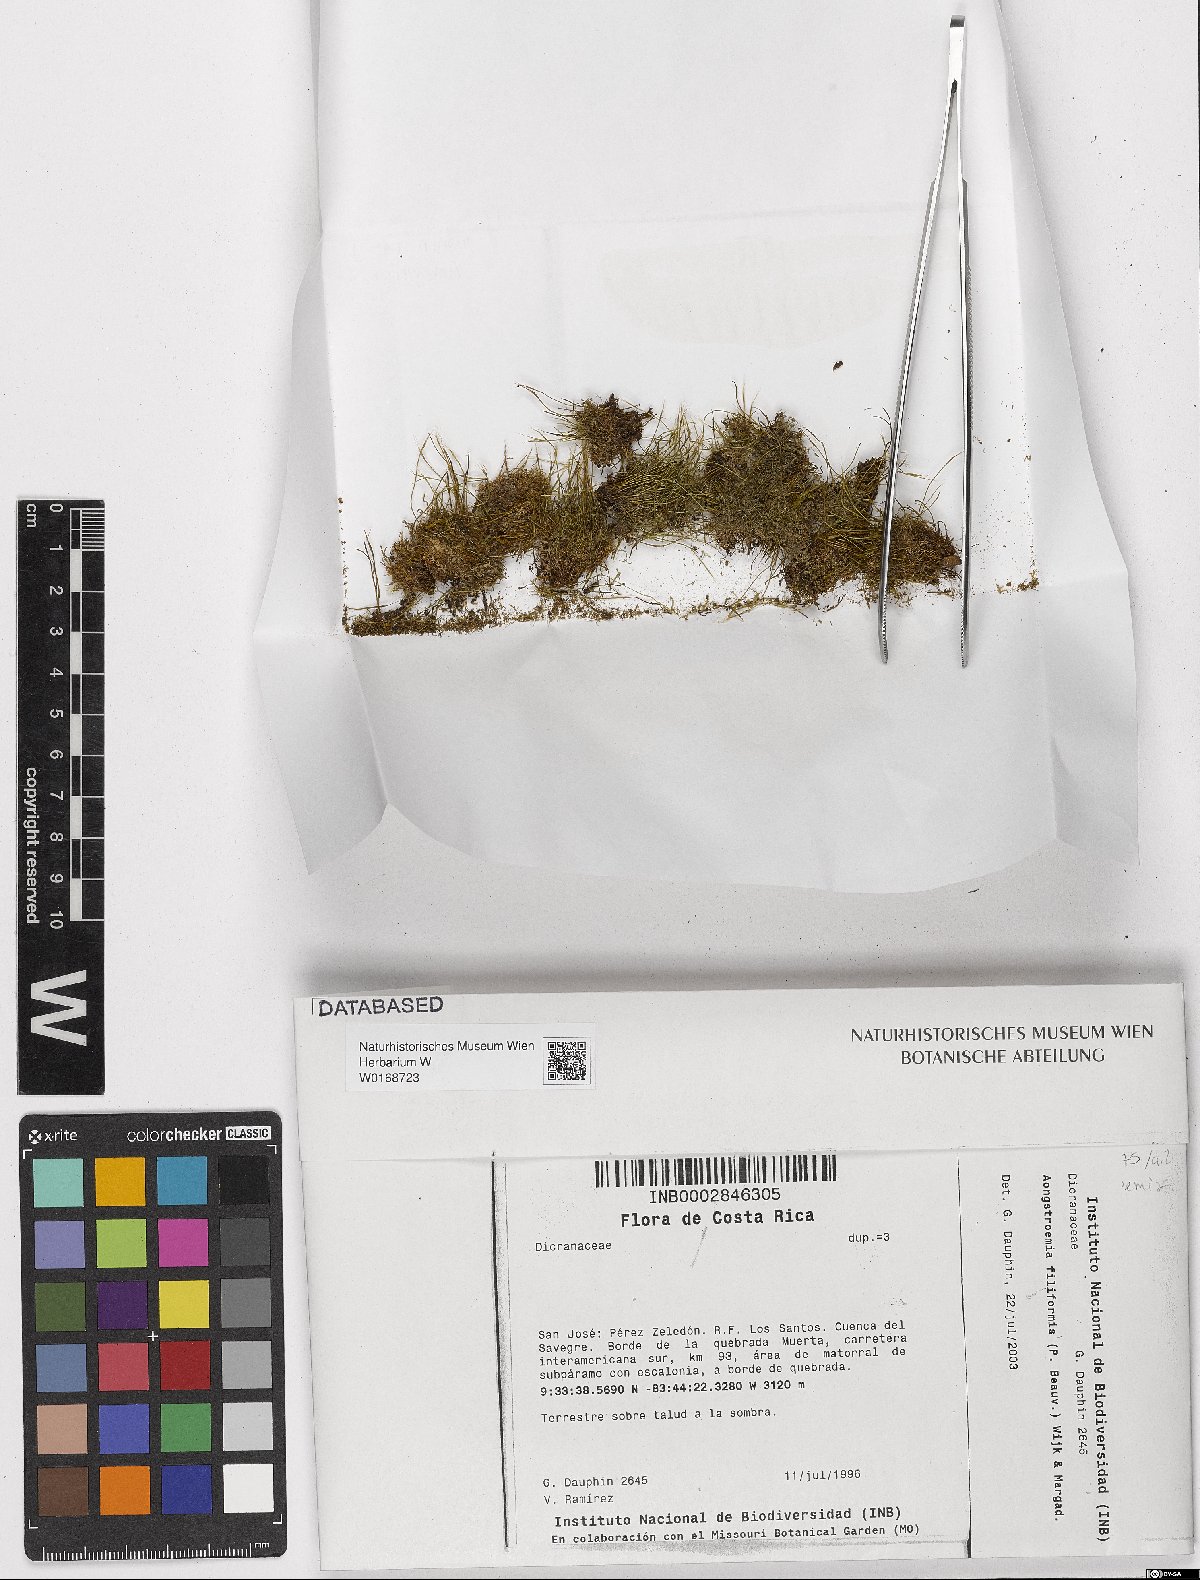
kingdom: Plantae
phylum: Bryophyta
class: Bryopsida
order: Dicranales
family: Aongstroemiaceae
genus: Aongstroemia
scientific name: Aongstroemia filiformis
